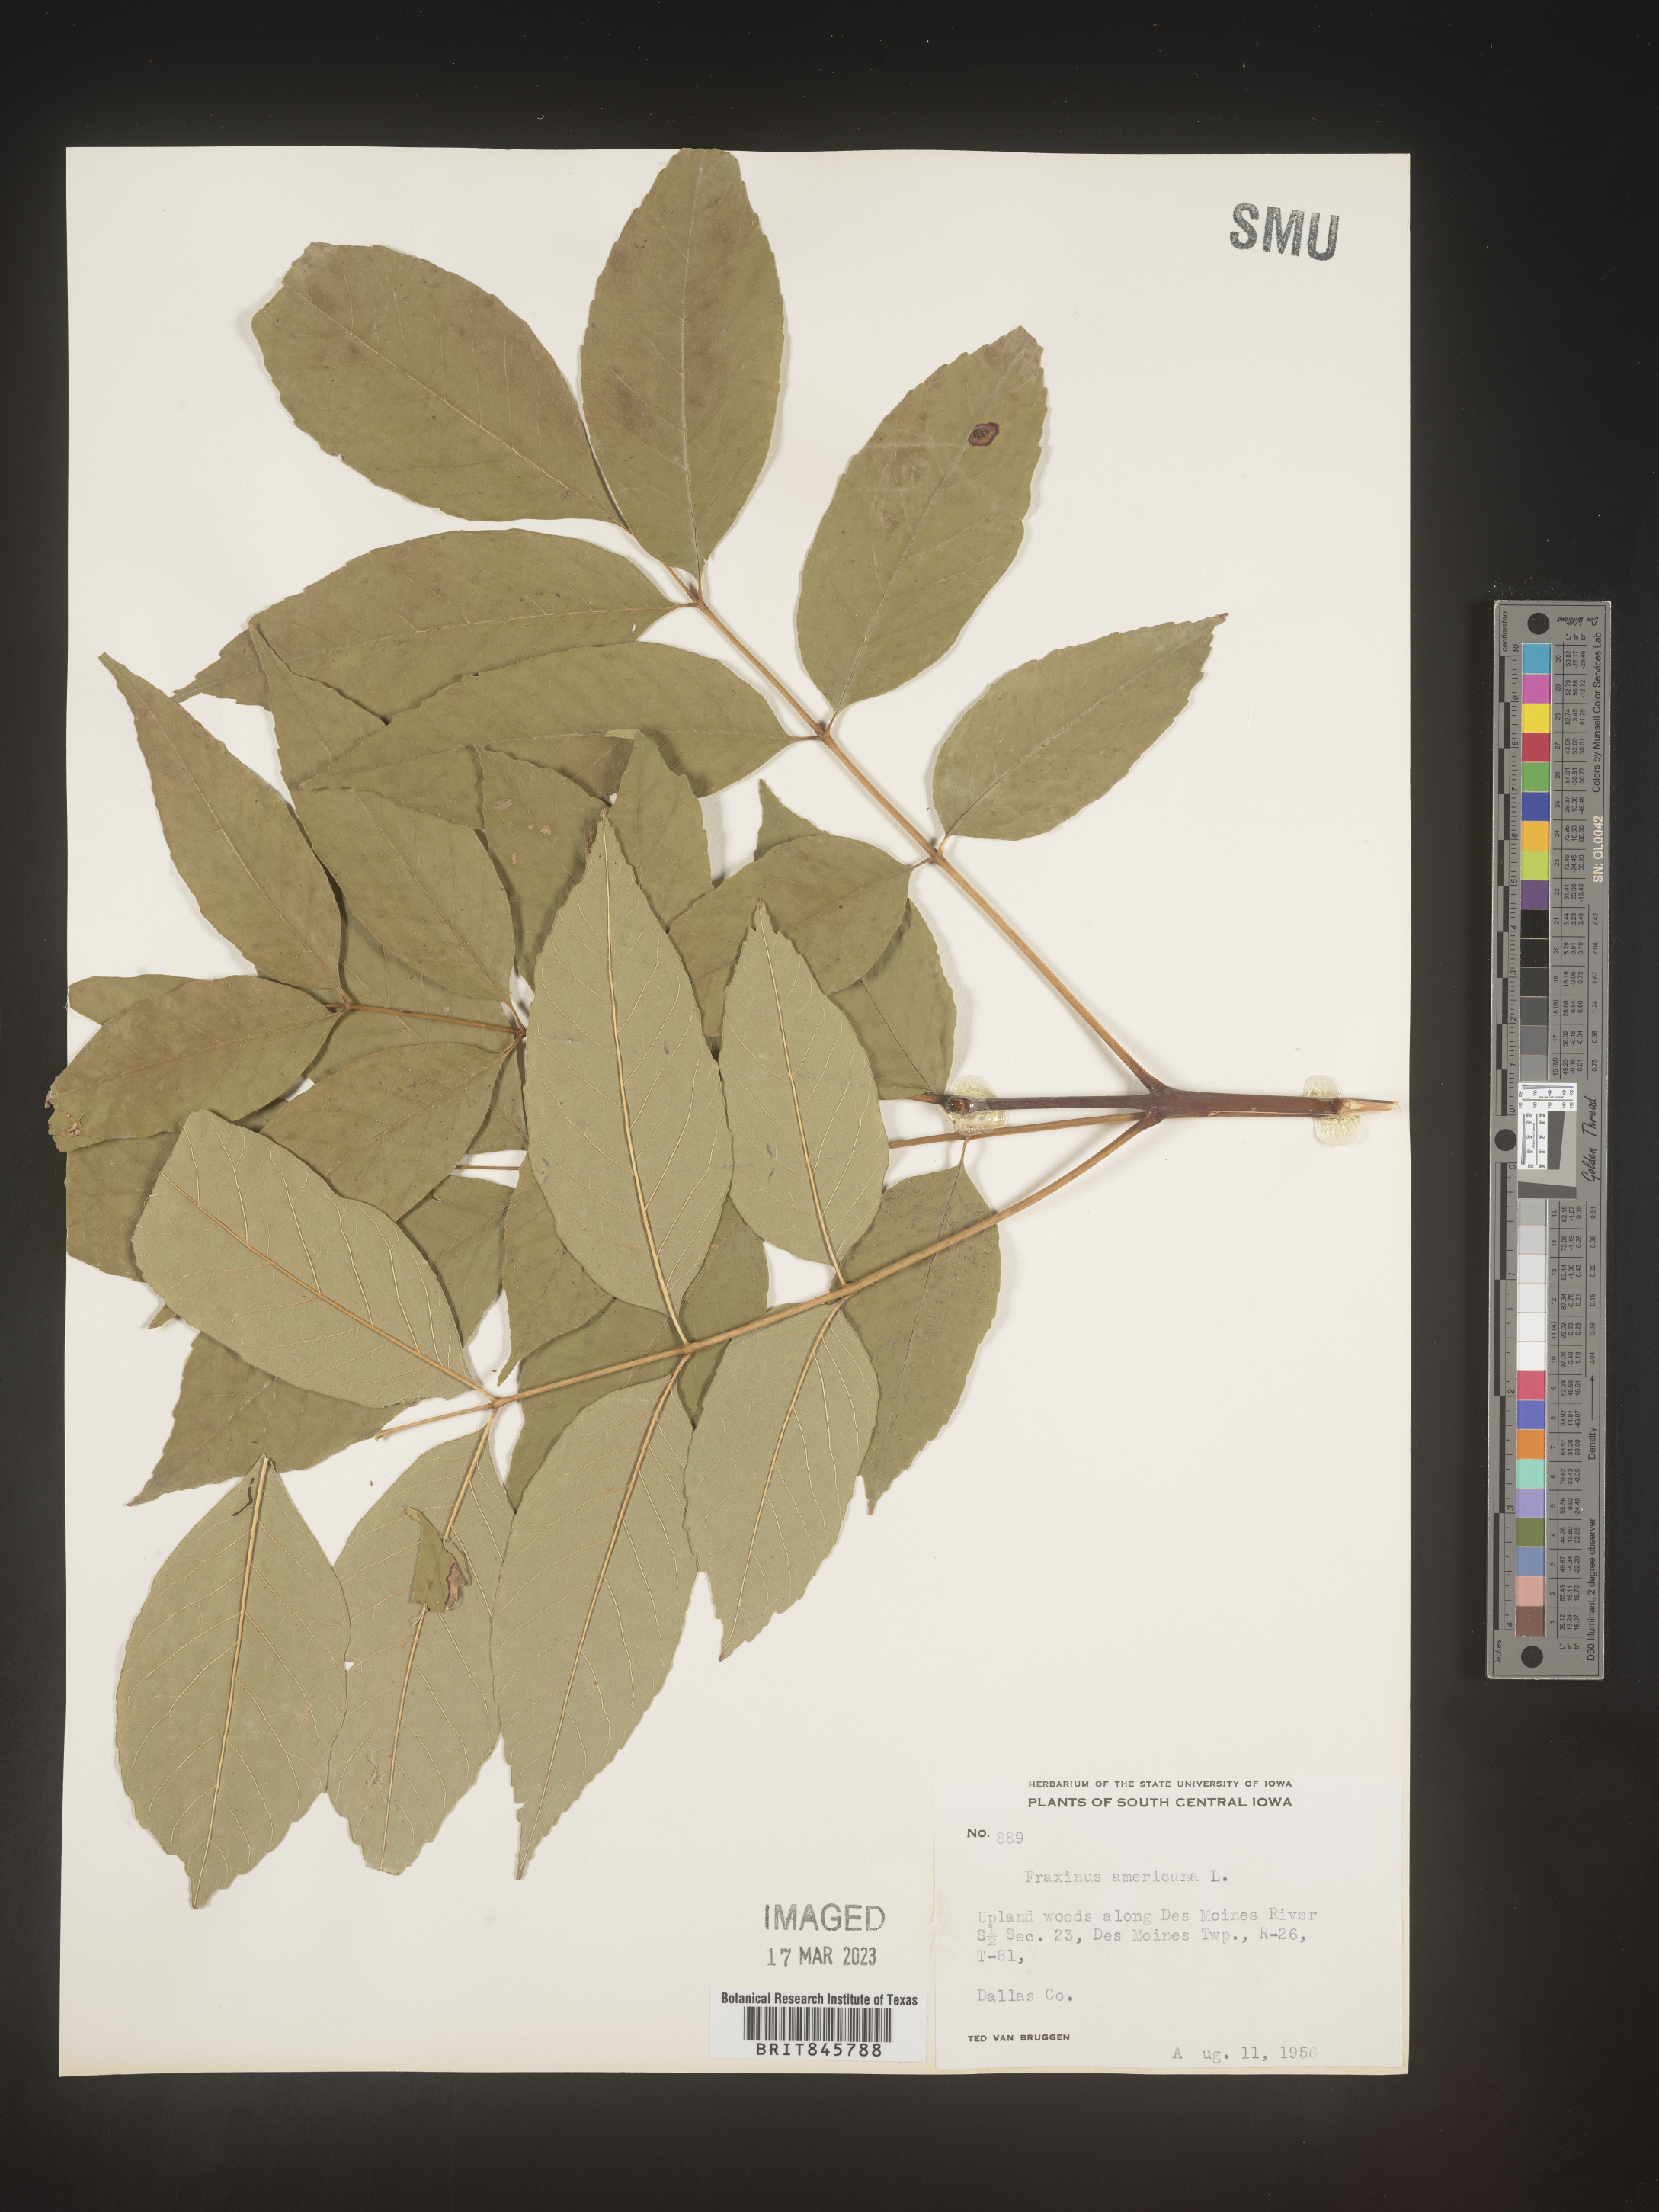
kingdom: Plantae
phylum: Tracheophyta
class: Magnoliopsida
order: Lamiales
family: Oleaceae
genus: Fraxinus
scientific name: Fraxinus americana
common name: White ash
